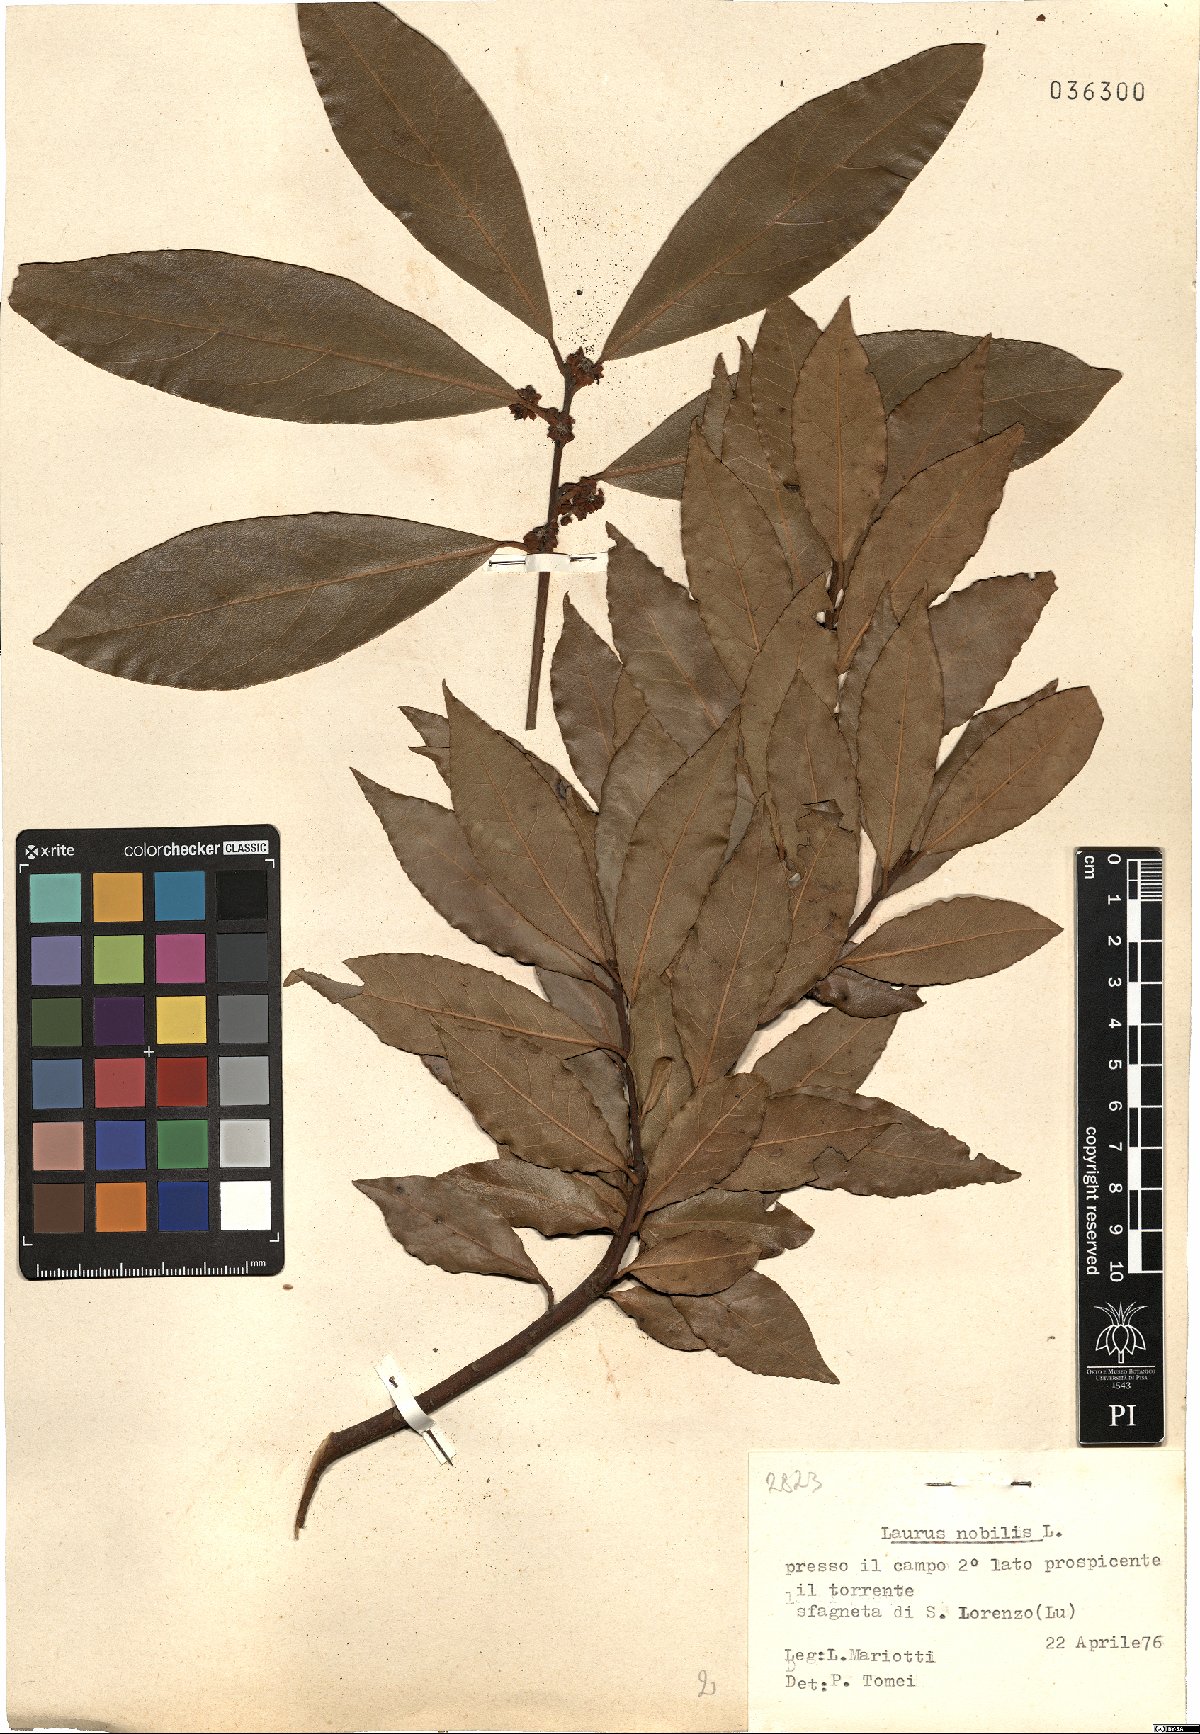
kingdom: Plantae
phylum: Tracheophyta
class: Magnoliopsida
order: Laurales
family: Lauraceae
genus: Laurus
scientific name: Laurus nobilis
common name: Bay
